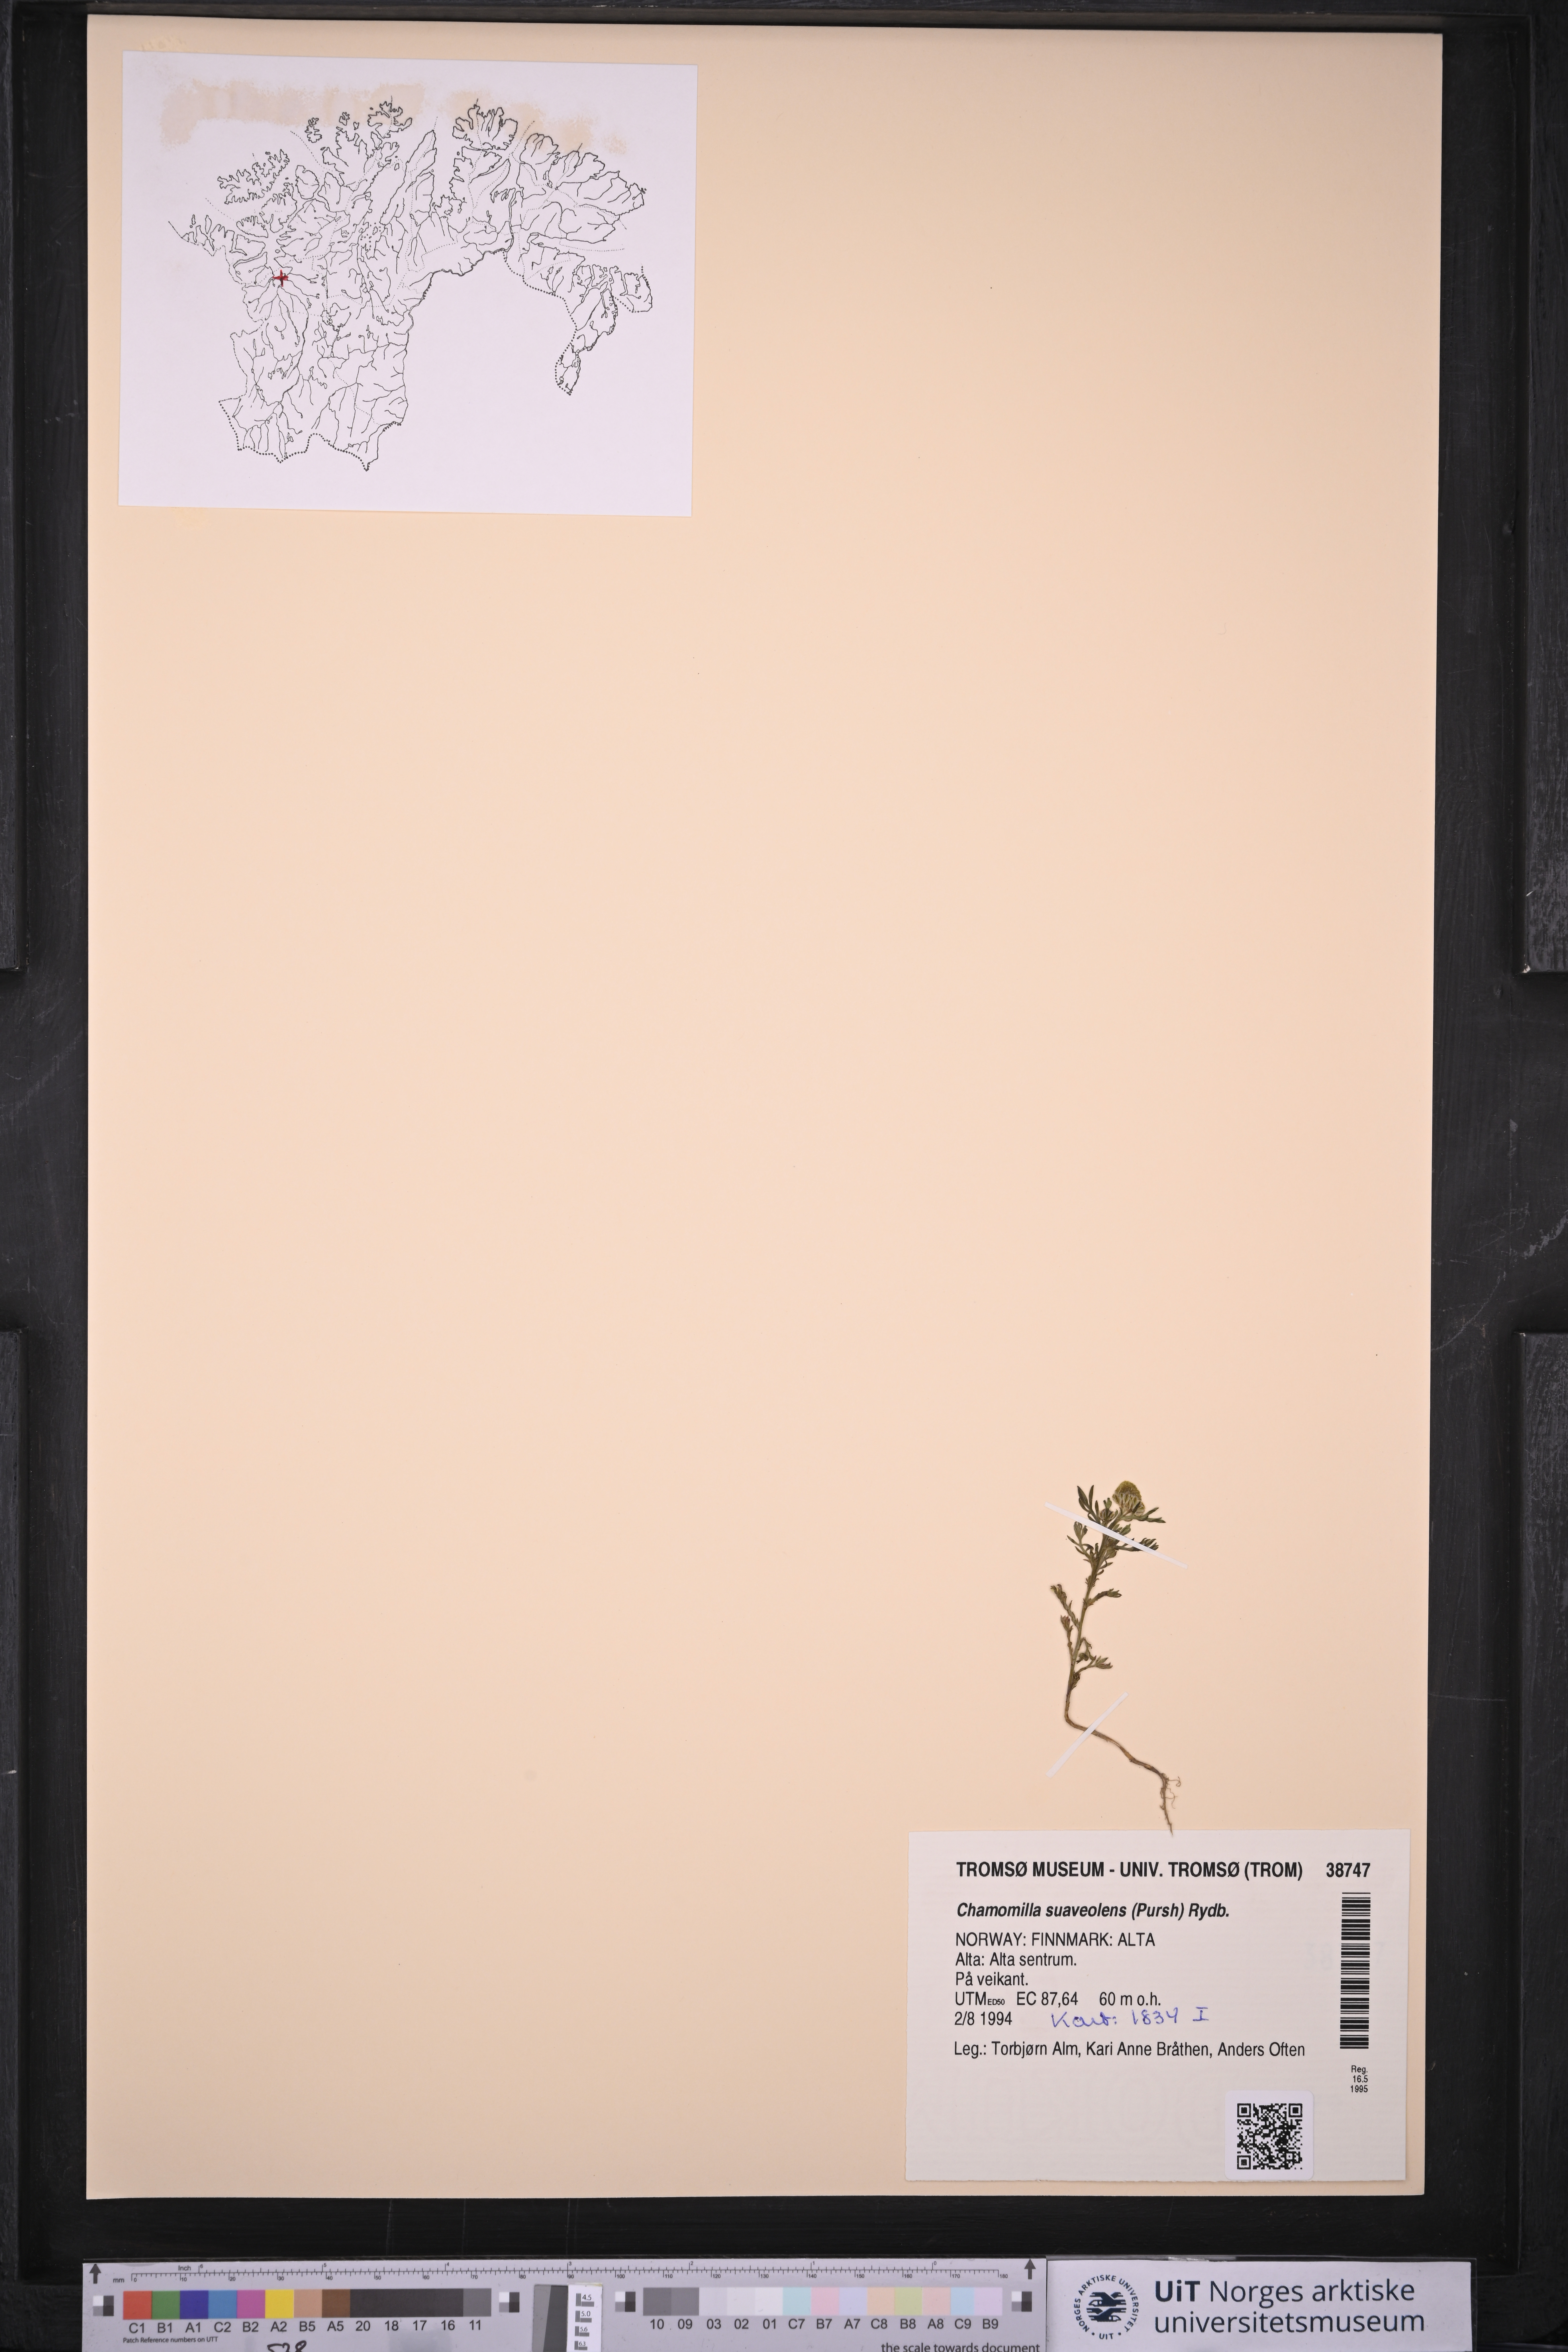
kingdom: Plantae
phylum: Tracheophyta
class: Magnoliopsida
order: Asterales
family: Asteraceae
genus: Matricaria
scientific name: Matricaria discoidea
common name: Disc mayweed
